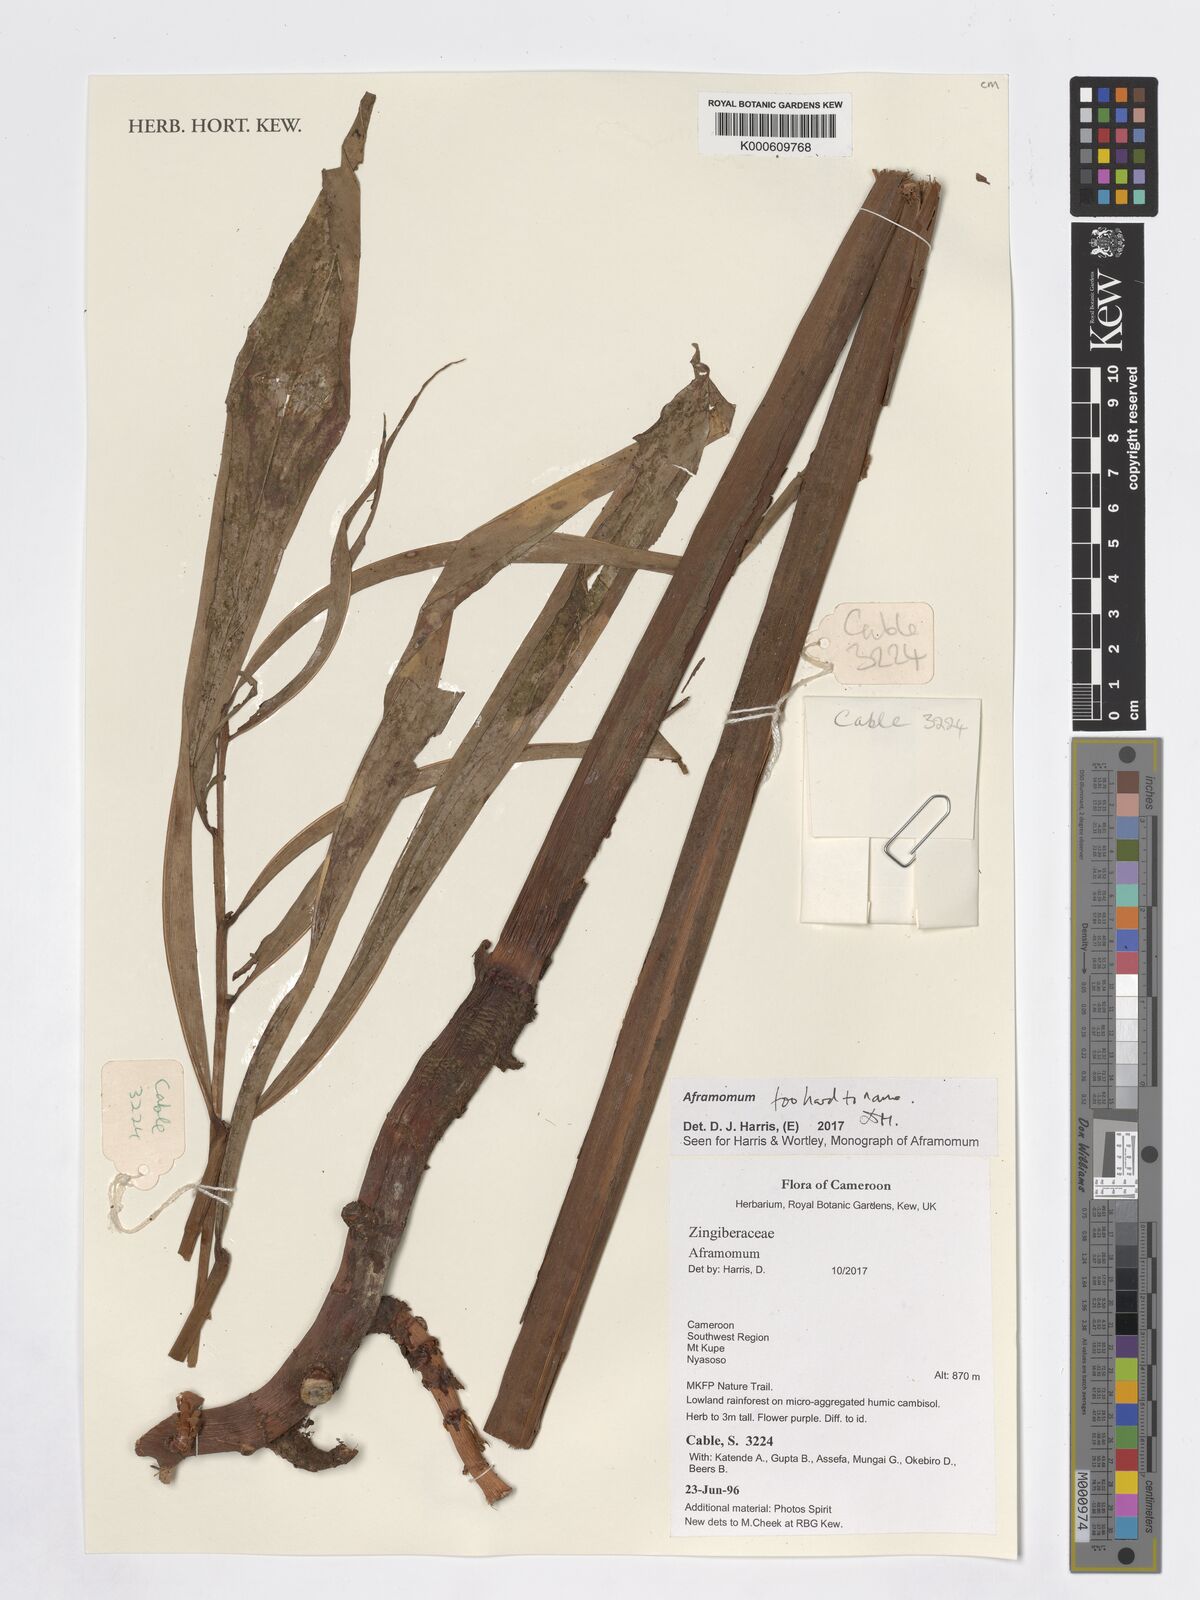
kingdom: Plantae
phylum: Tracheophyta
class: Liliopsida
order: Zingiberales
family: Zingiberaceae
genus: Aframomum
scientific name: Aframomum
